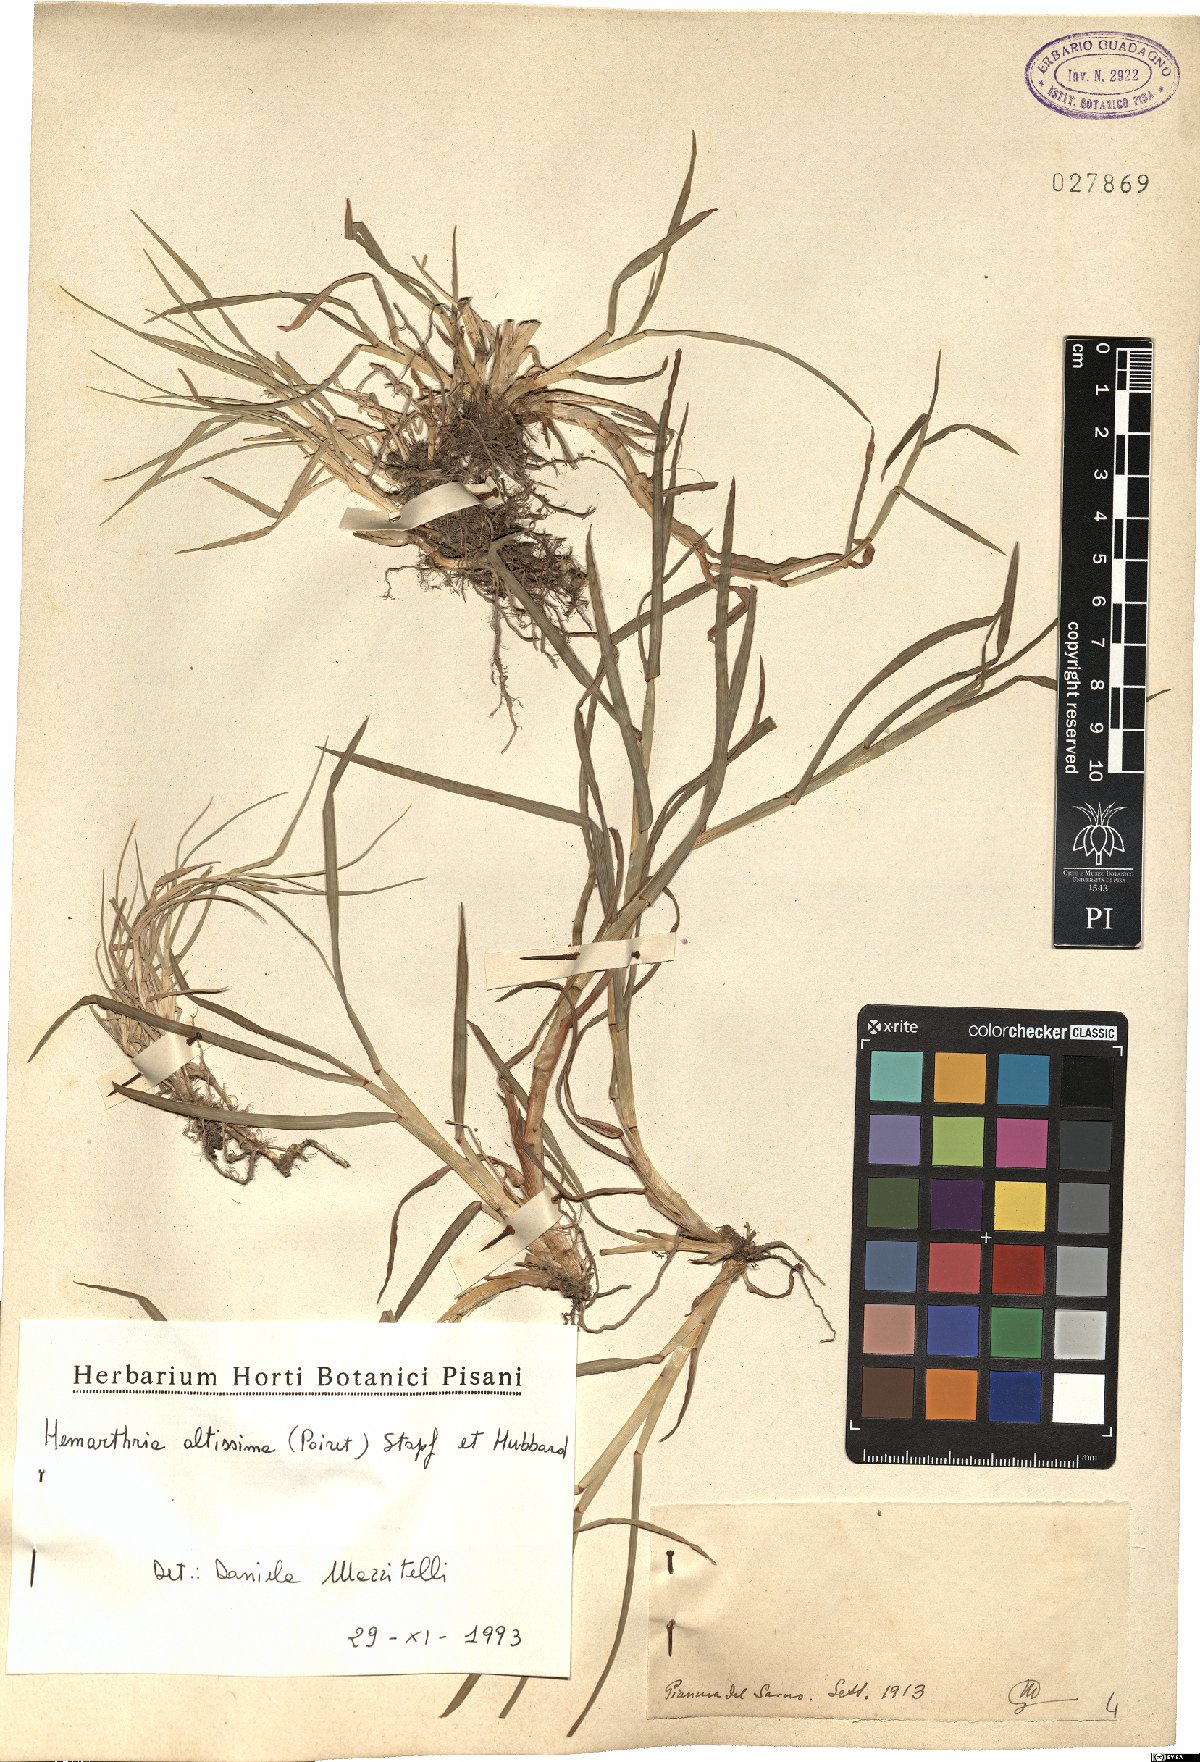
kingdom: Plantae
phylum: Tracheophyta
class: Liliopsida
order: Poales
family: Poaceae
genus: Hemarthria
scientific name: Hemarthria altissima
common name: African jointgrass
